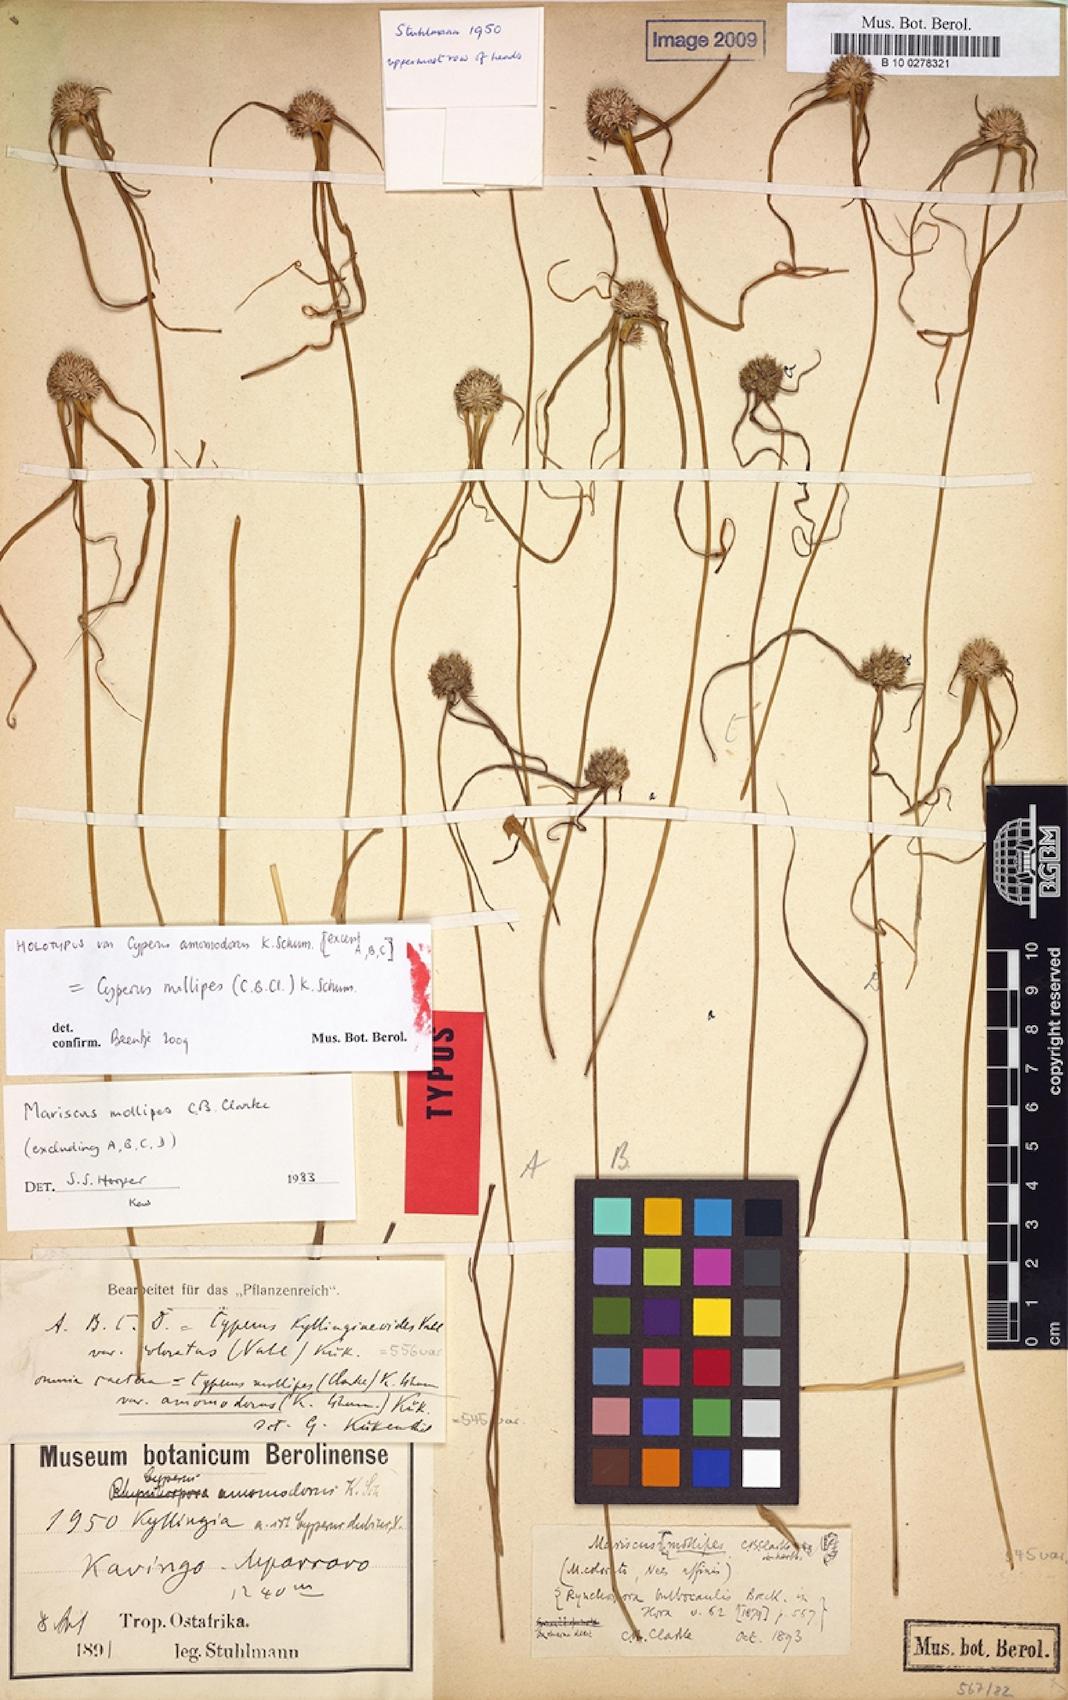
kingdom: Plantae
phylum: Tracheophyta
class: Liliopsida
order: Poales
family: Cyperaceae
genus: Cyperus
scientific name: Cyperus mollipes
